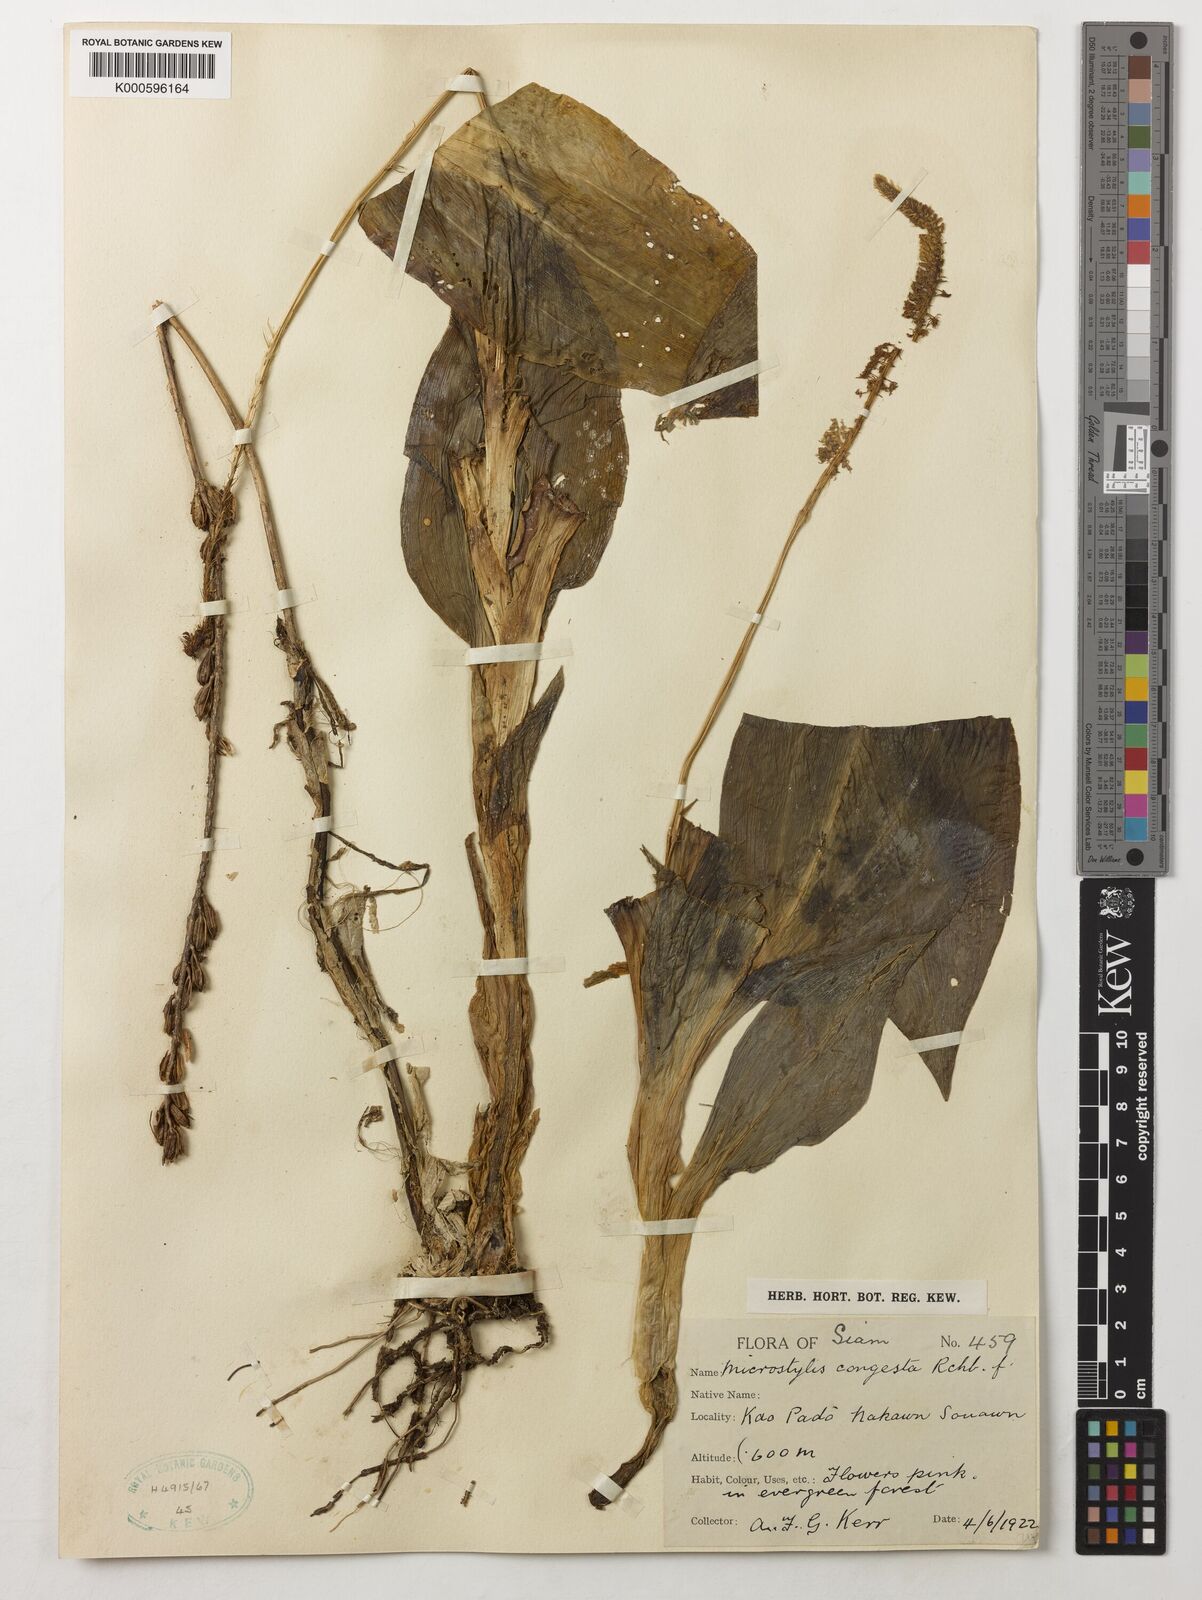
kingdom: Plantae
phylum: Tracheophyta
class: Liliopsida
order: Asparagales
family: Orchidaceae
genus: Dienia
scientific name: Dienia ophrydis
